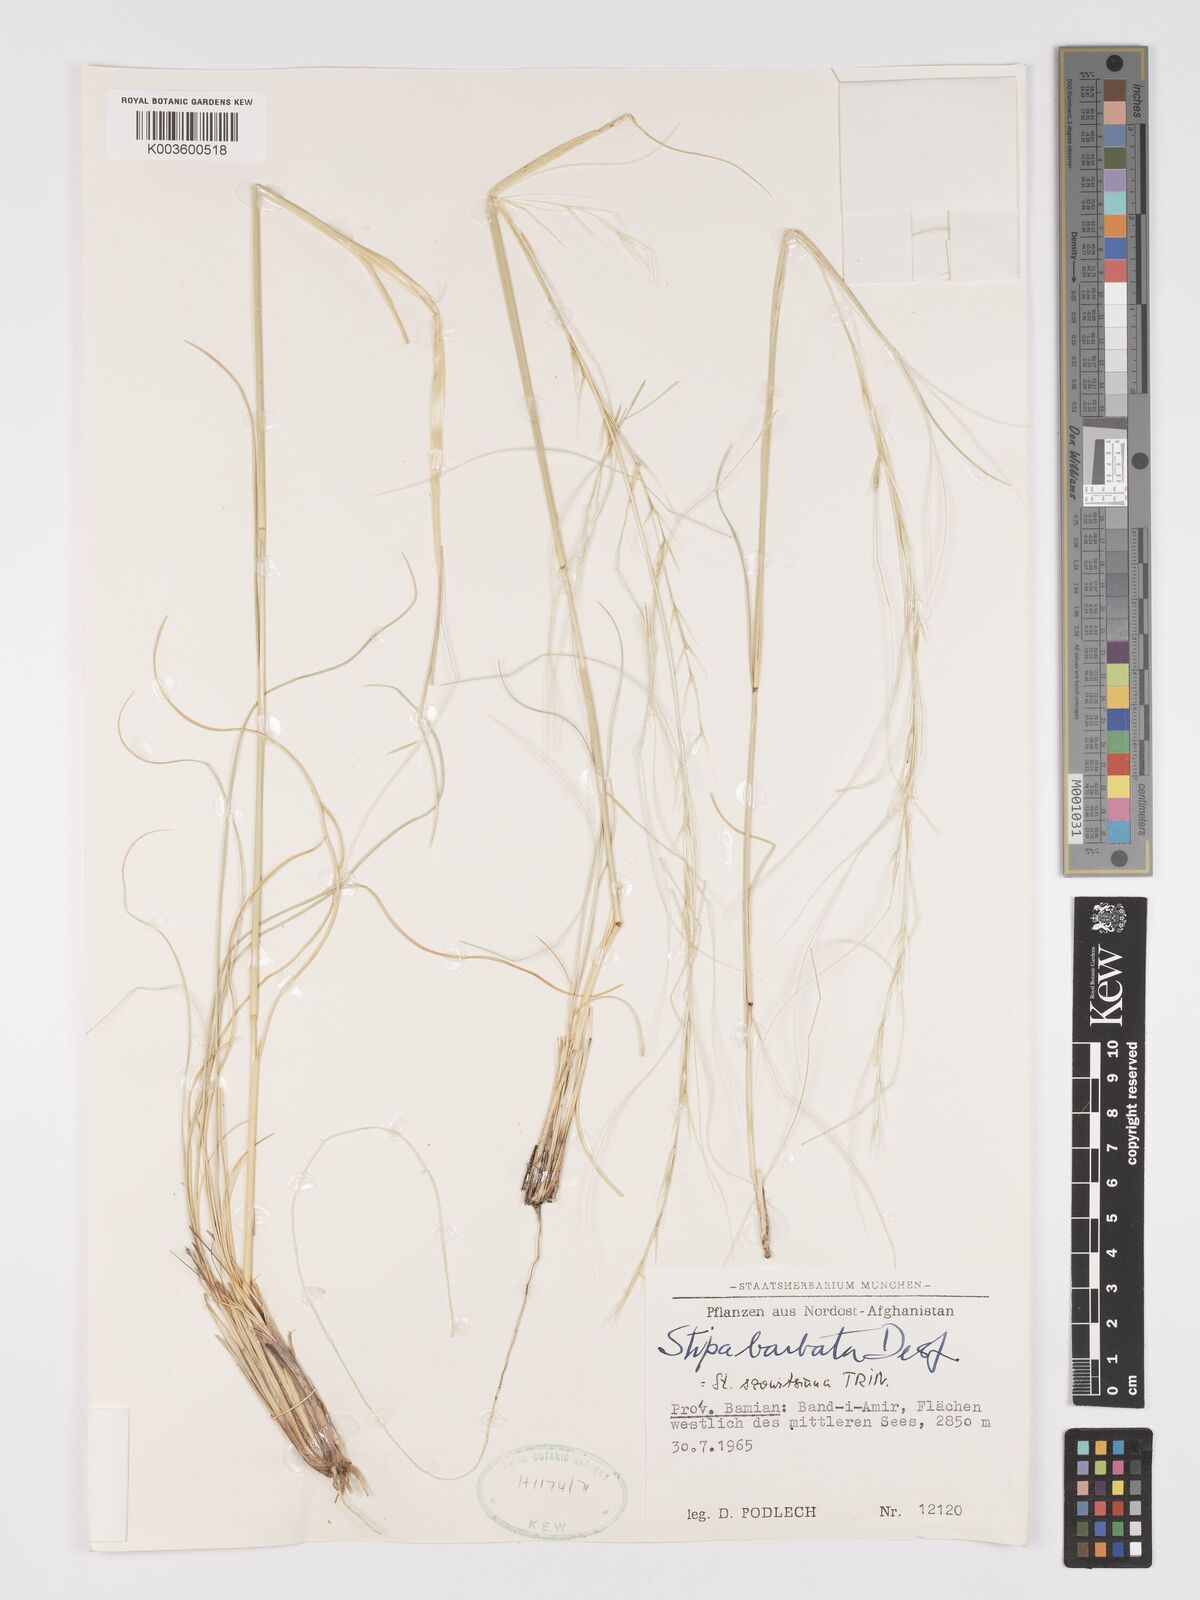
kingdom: Plantae
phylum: Tracheophyta
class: Liliopsida
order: Poales
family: Poaceae
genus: Stipa
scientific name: Stipa arabica
